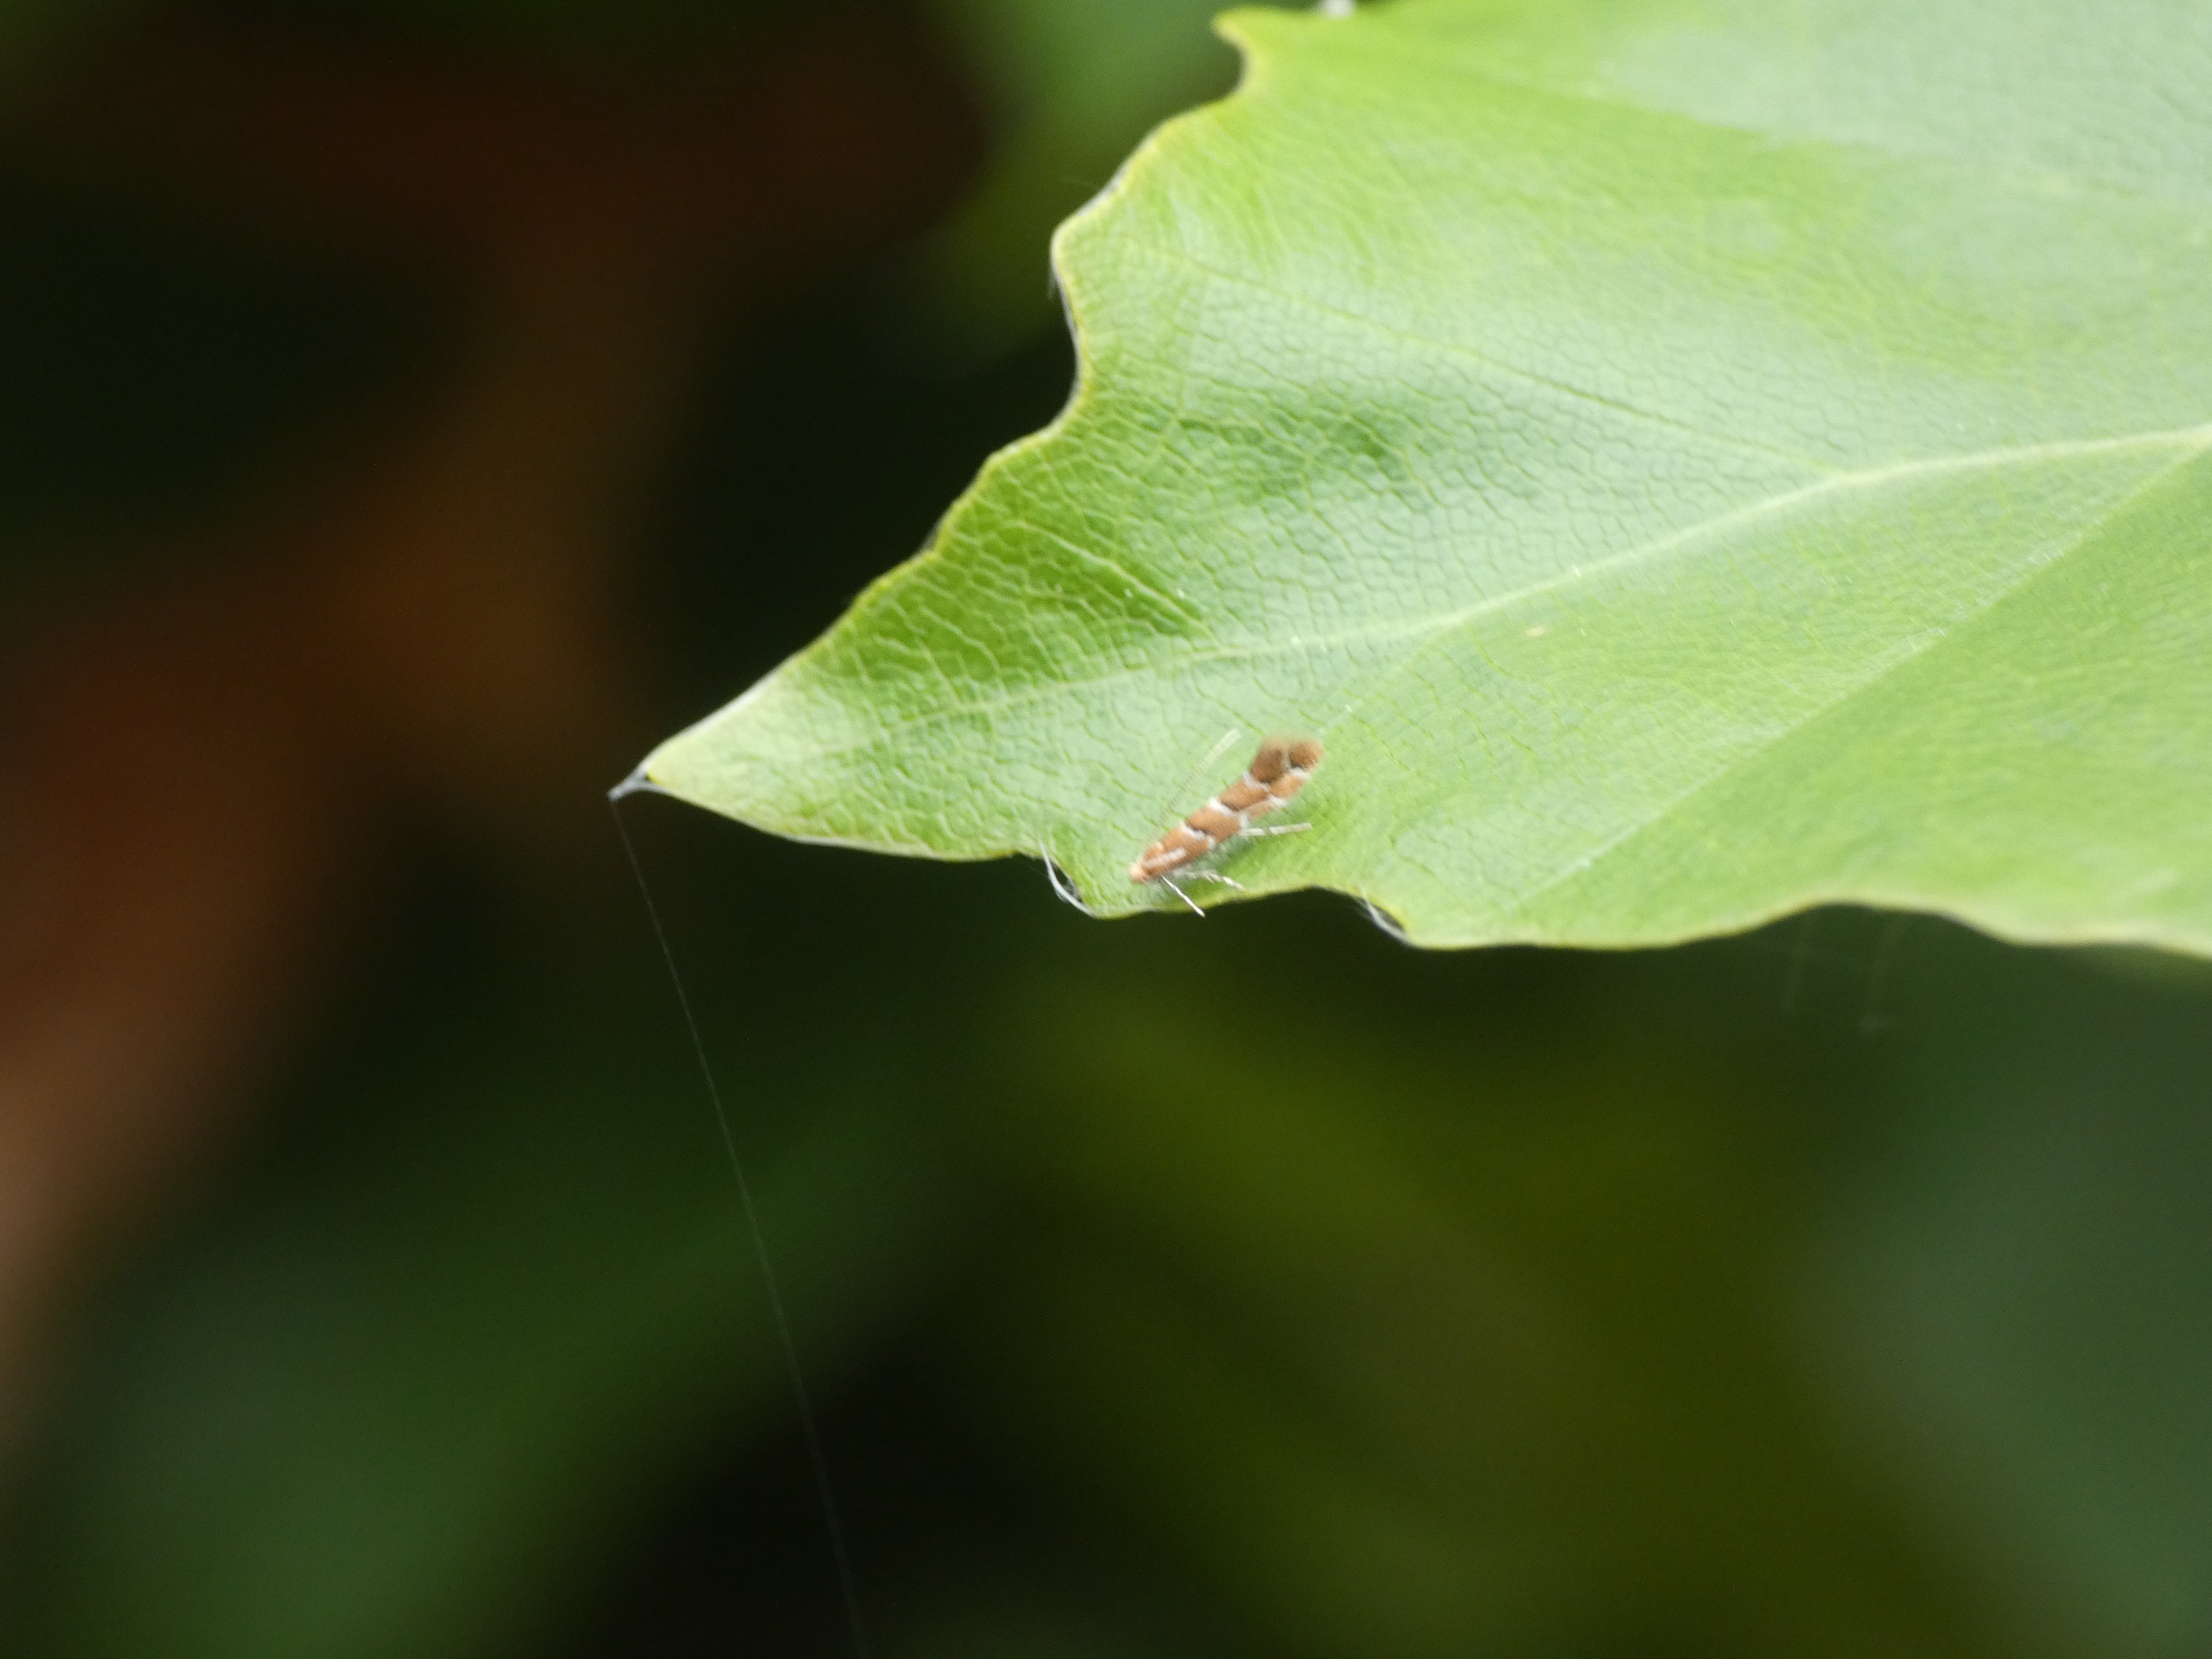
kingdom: Animalia
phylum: Arthropoda
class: Insecta
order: Lepidoptera
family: Gracillariidae
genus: Cameraria
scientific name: Cameraria ohridella
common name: Kastanieminérmøl
